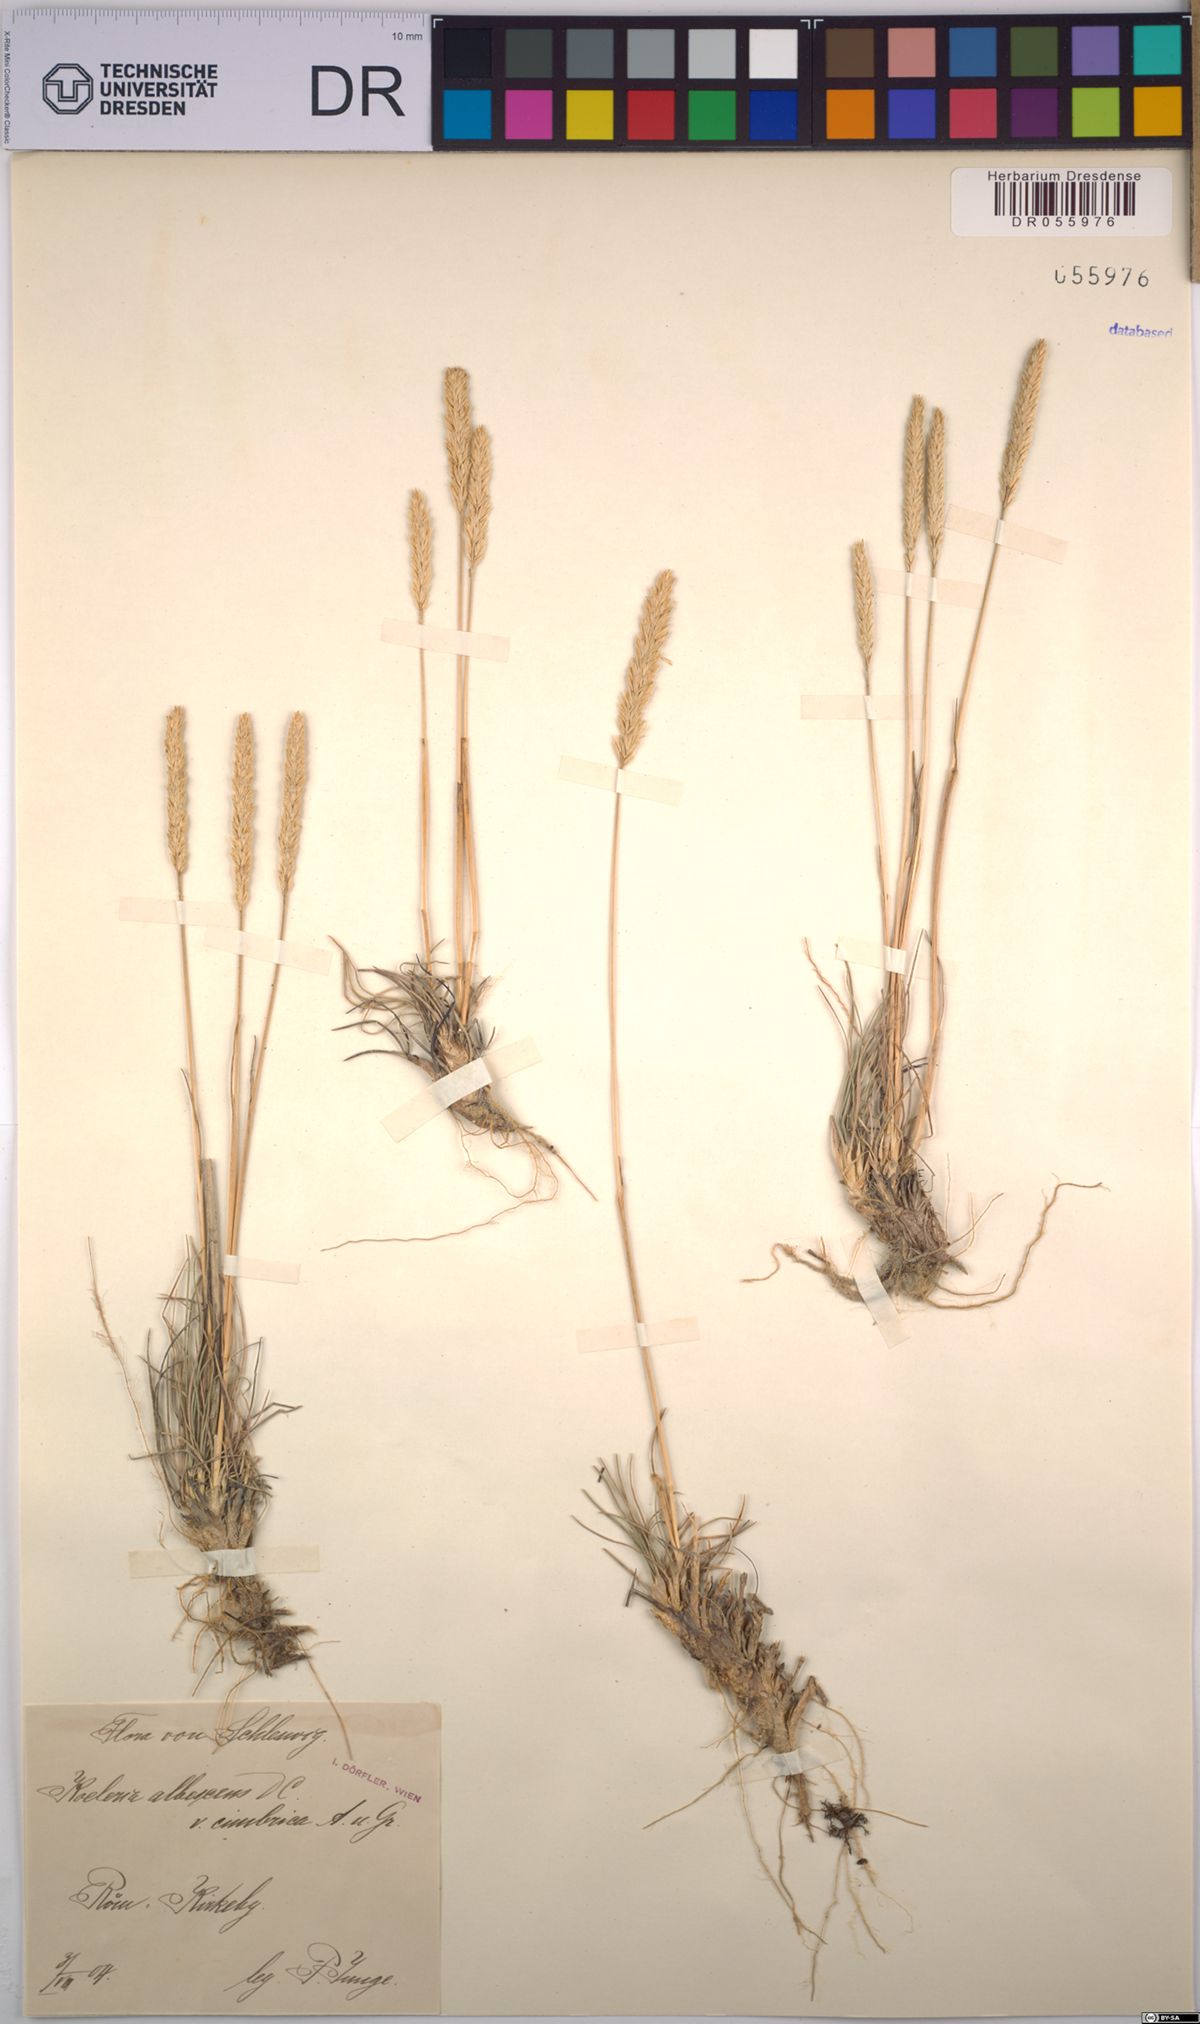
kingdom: Plantae
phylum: Tracheophyta
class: Liliopsida
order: Poales
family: Poaceae
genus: Koeleria
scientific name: Koeleria pyramidata
